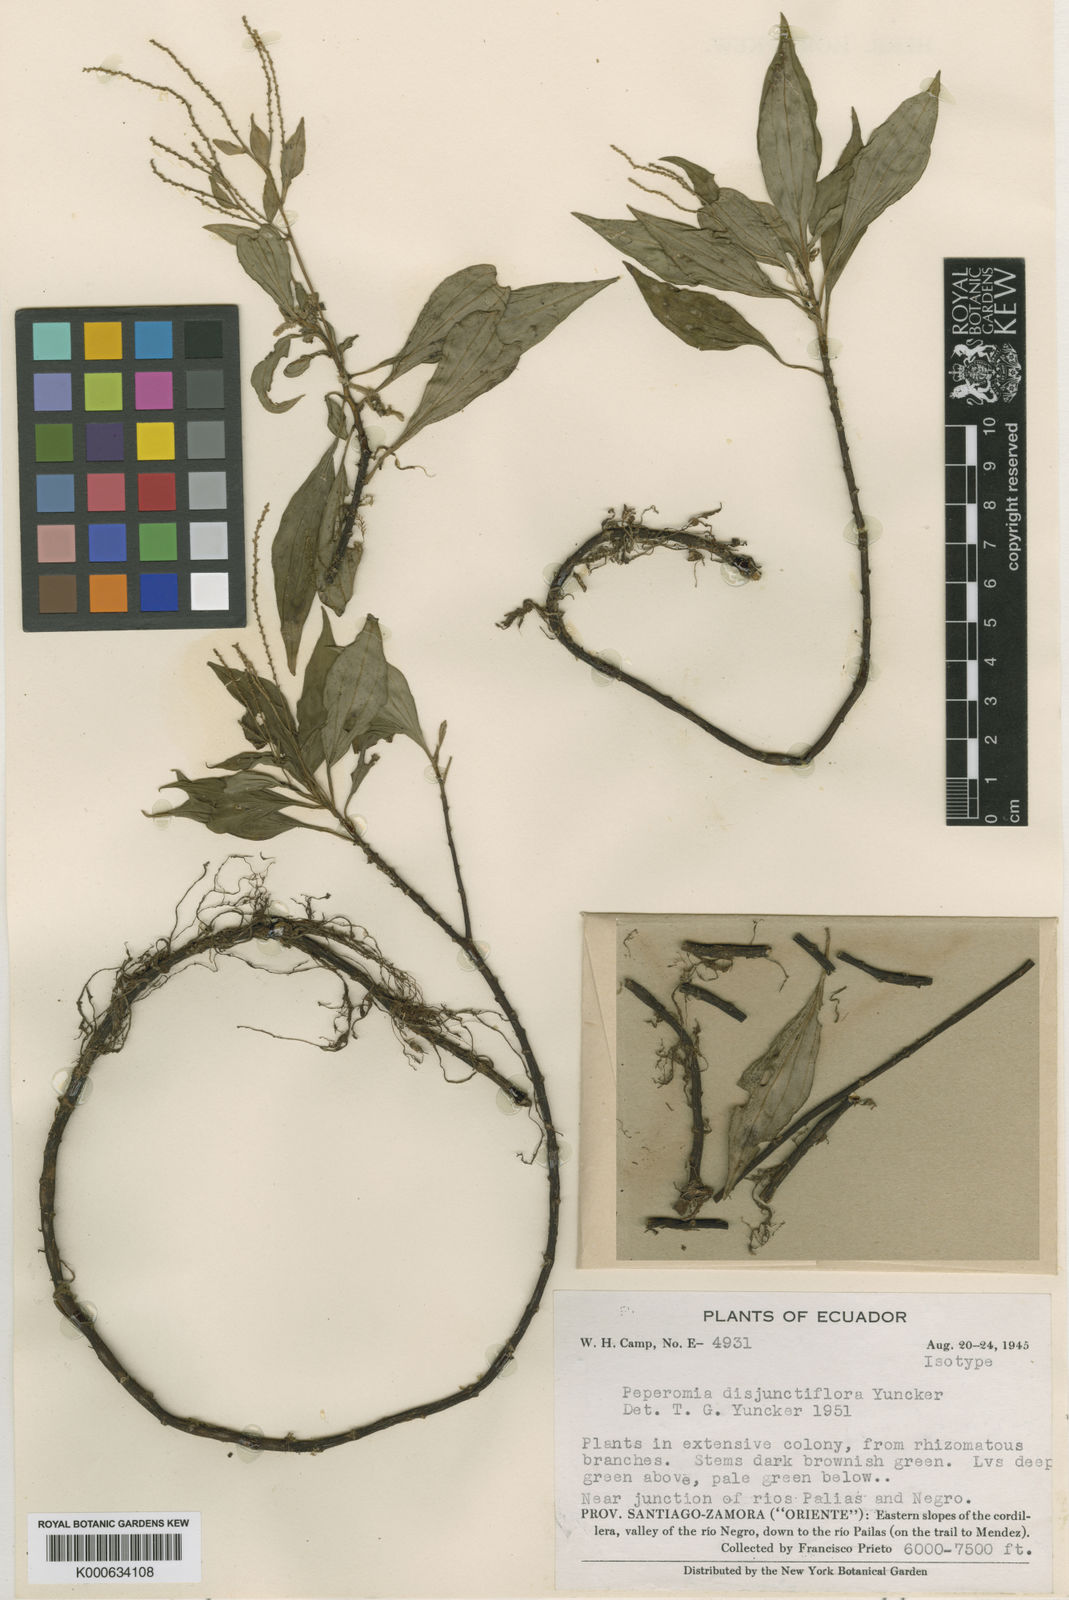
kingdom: Plantae
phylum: Tracheophyta
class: Magnoliopsida
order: Piperales
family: Piperaceae
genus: Peperomia
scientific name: Peperomia disjunctiflora
